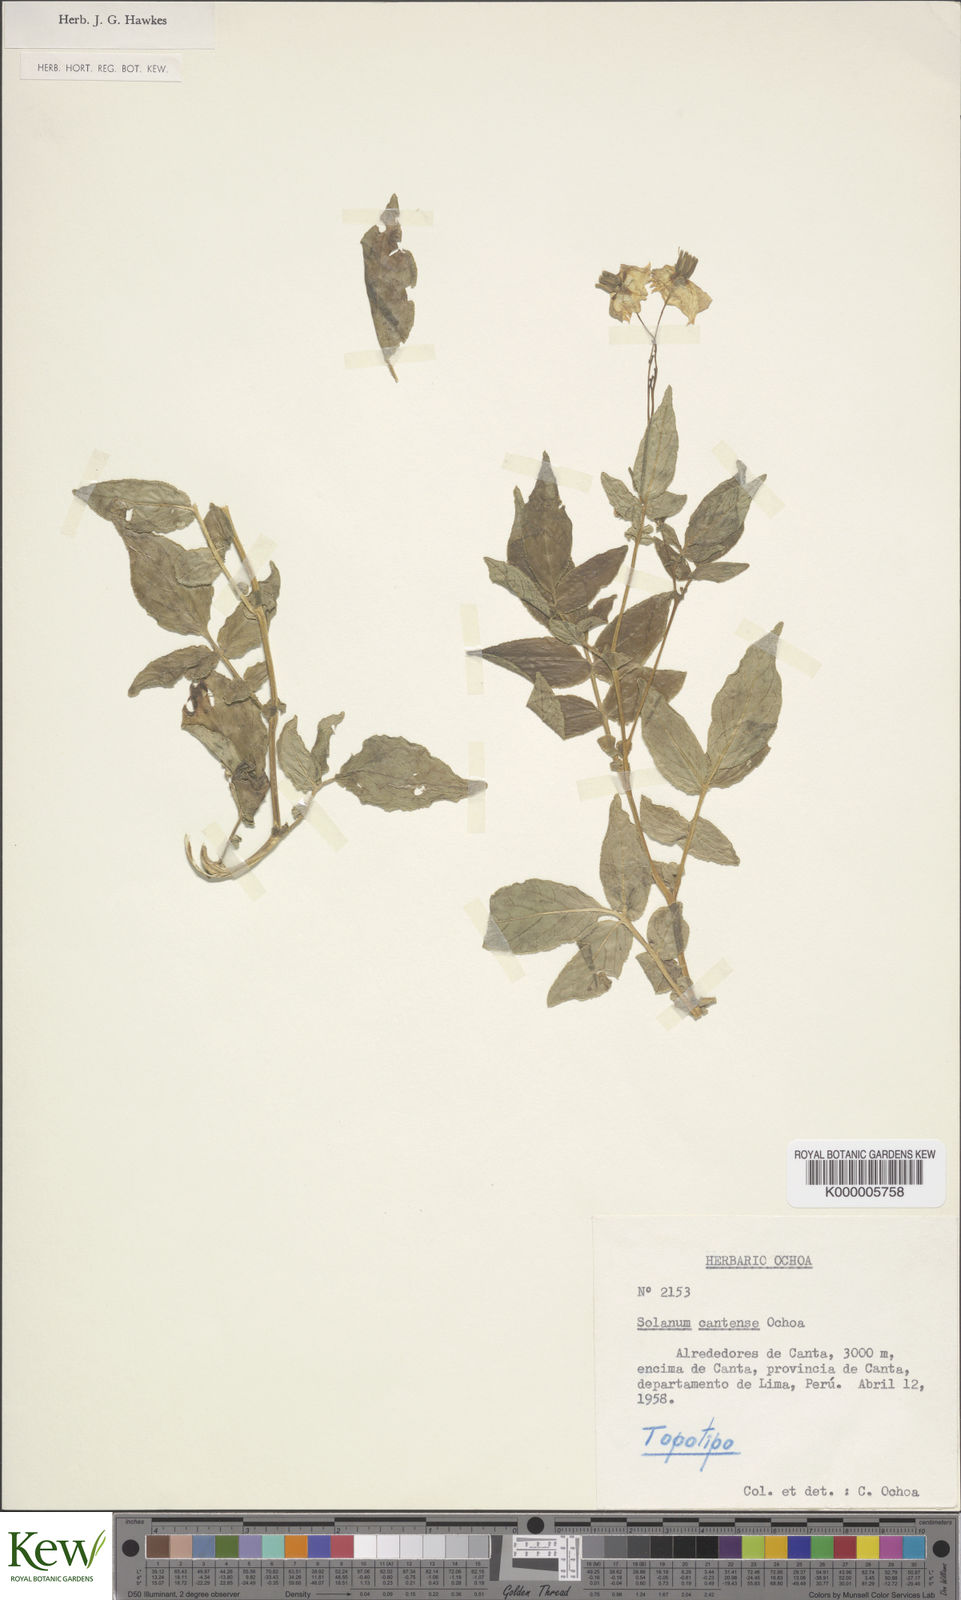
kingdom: Plantae
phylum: Tracheophyta
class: Magnoliopsida
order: Solanales
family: Solanaceae
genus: Solanum
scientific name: Solanum cantense
